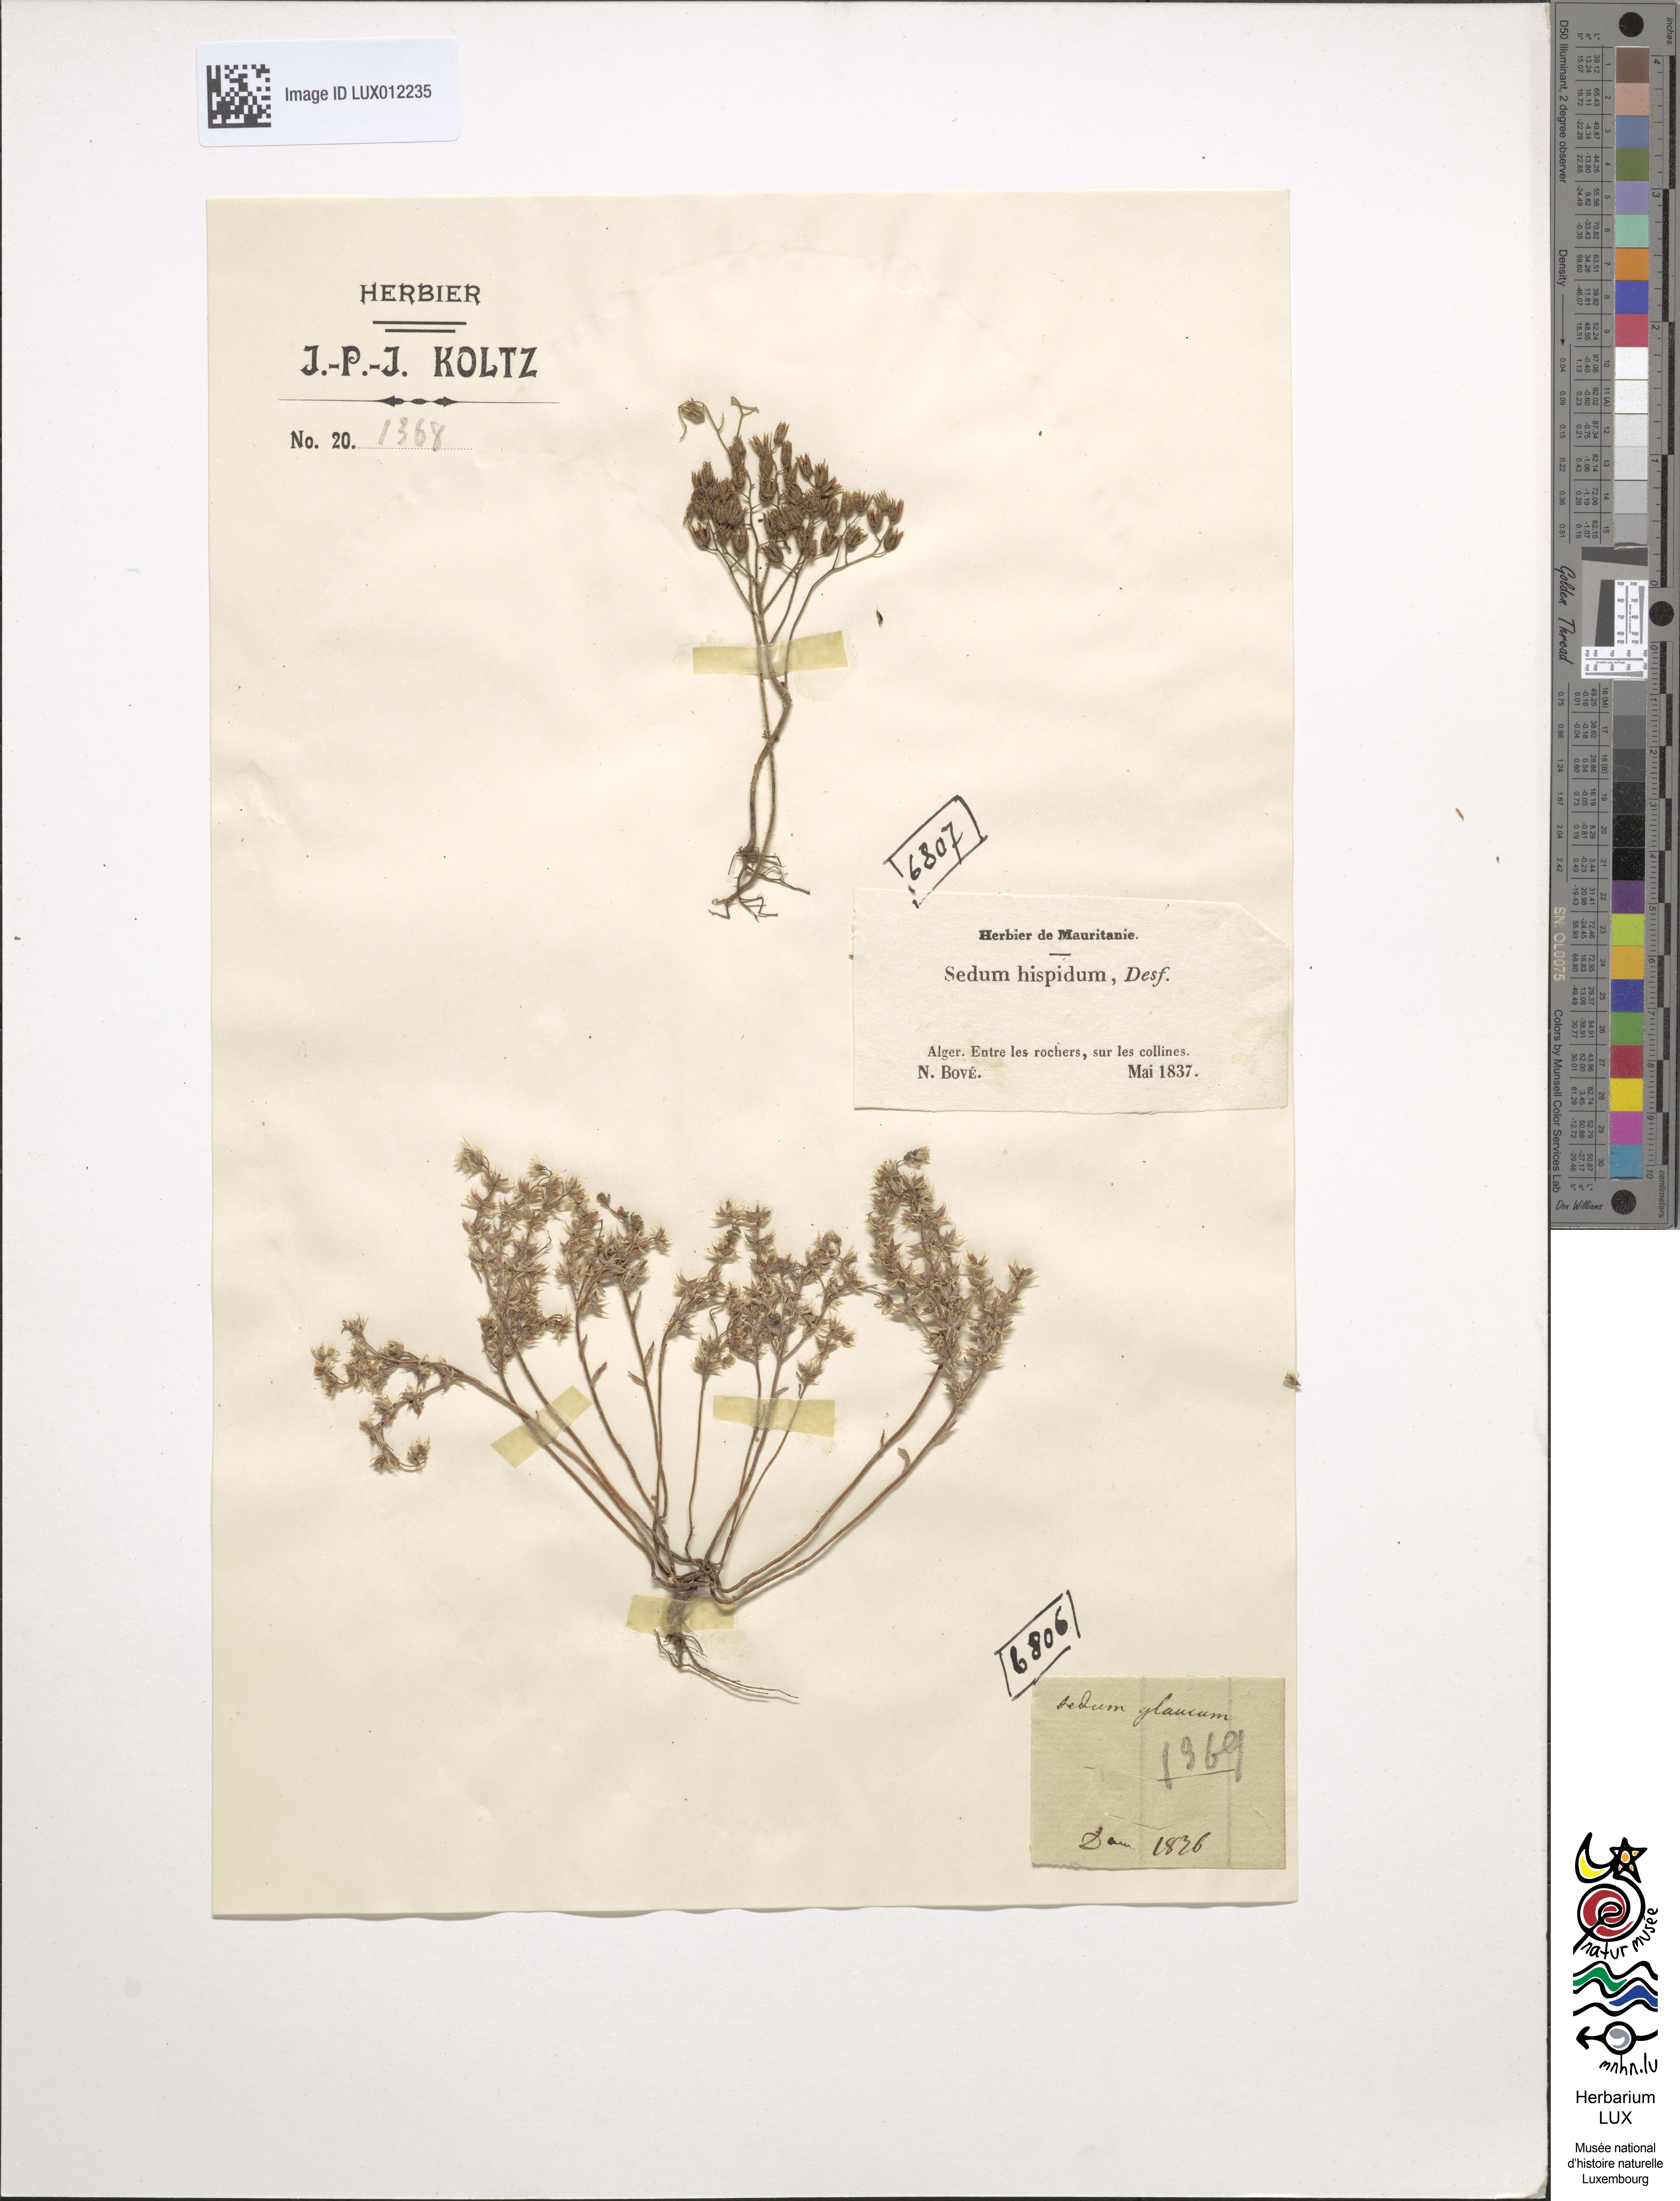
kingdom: Plantae
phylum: Tracheophyta
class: Magnoliopsida
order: Saxifragales
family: Crassulaceae
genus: Sedum
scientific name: Sedum
